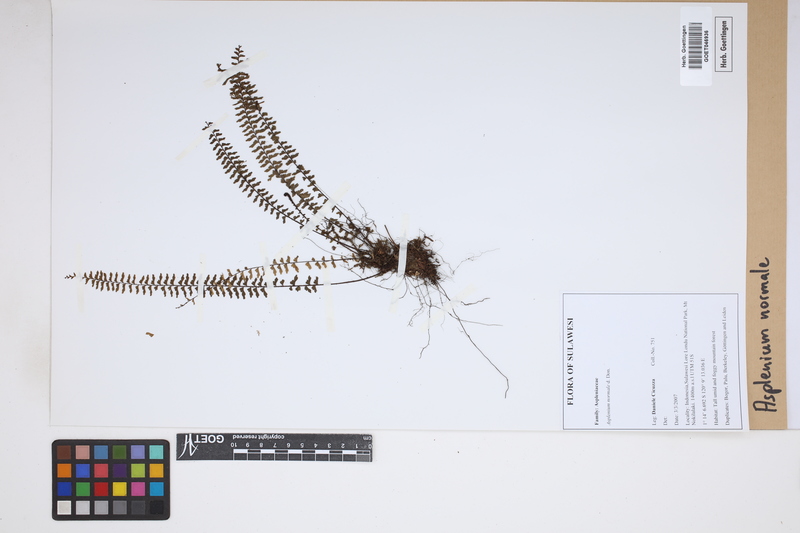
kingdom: Plantae
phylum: Tracheophyta
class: Polypodiopsida
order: Polypodiales
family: Aspleniaceae
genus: Asplenium
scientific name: Asplenium normale
